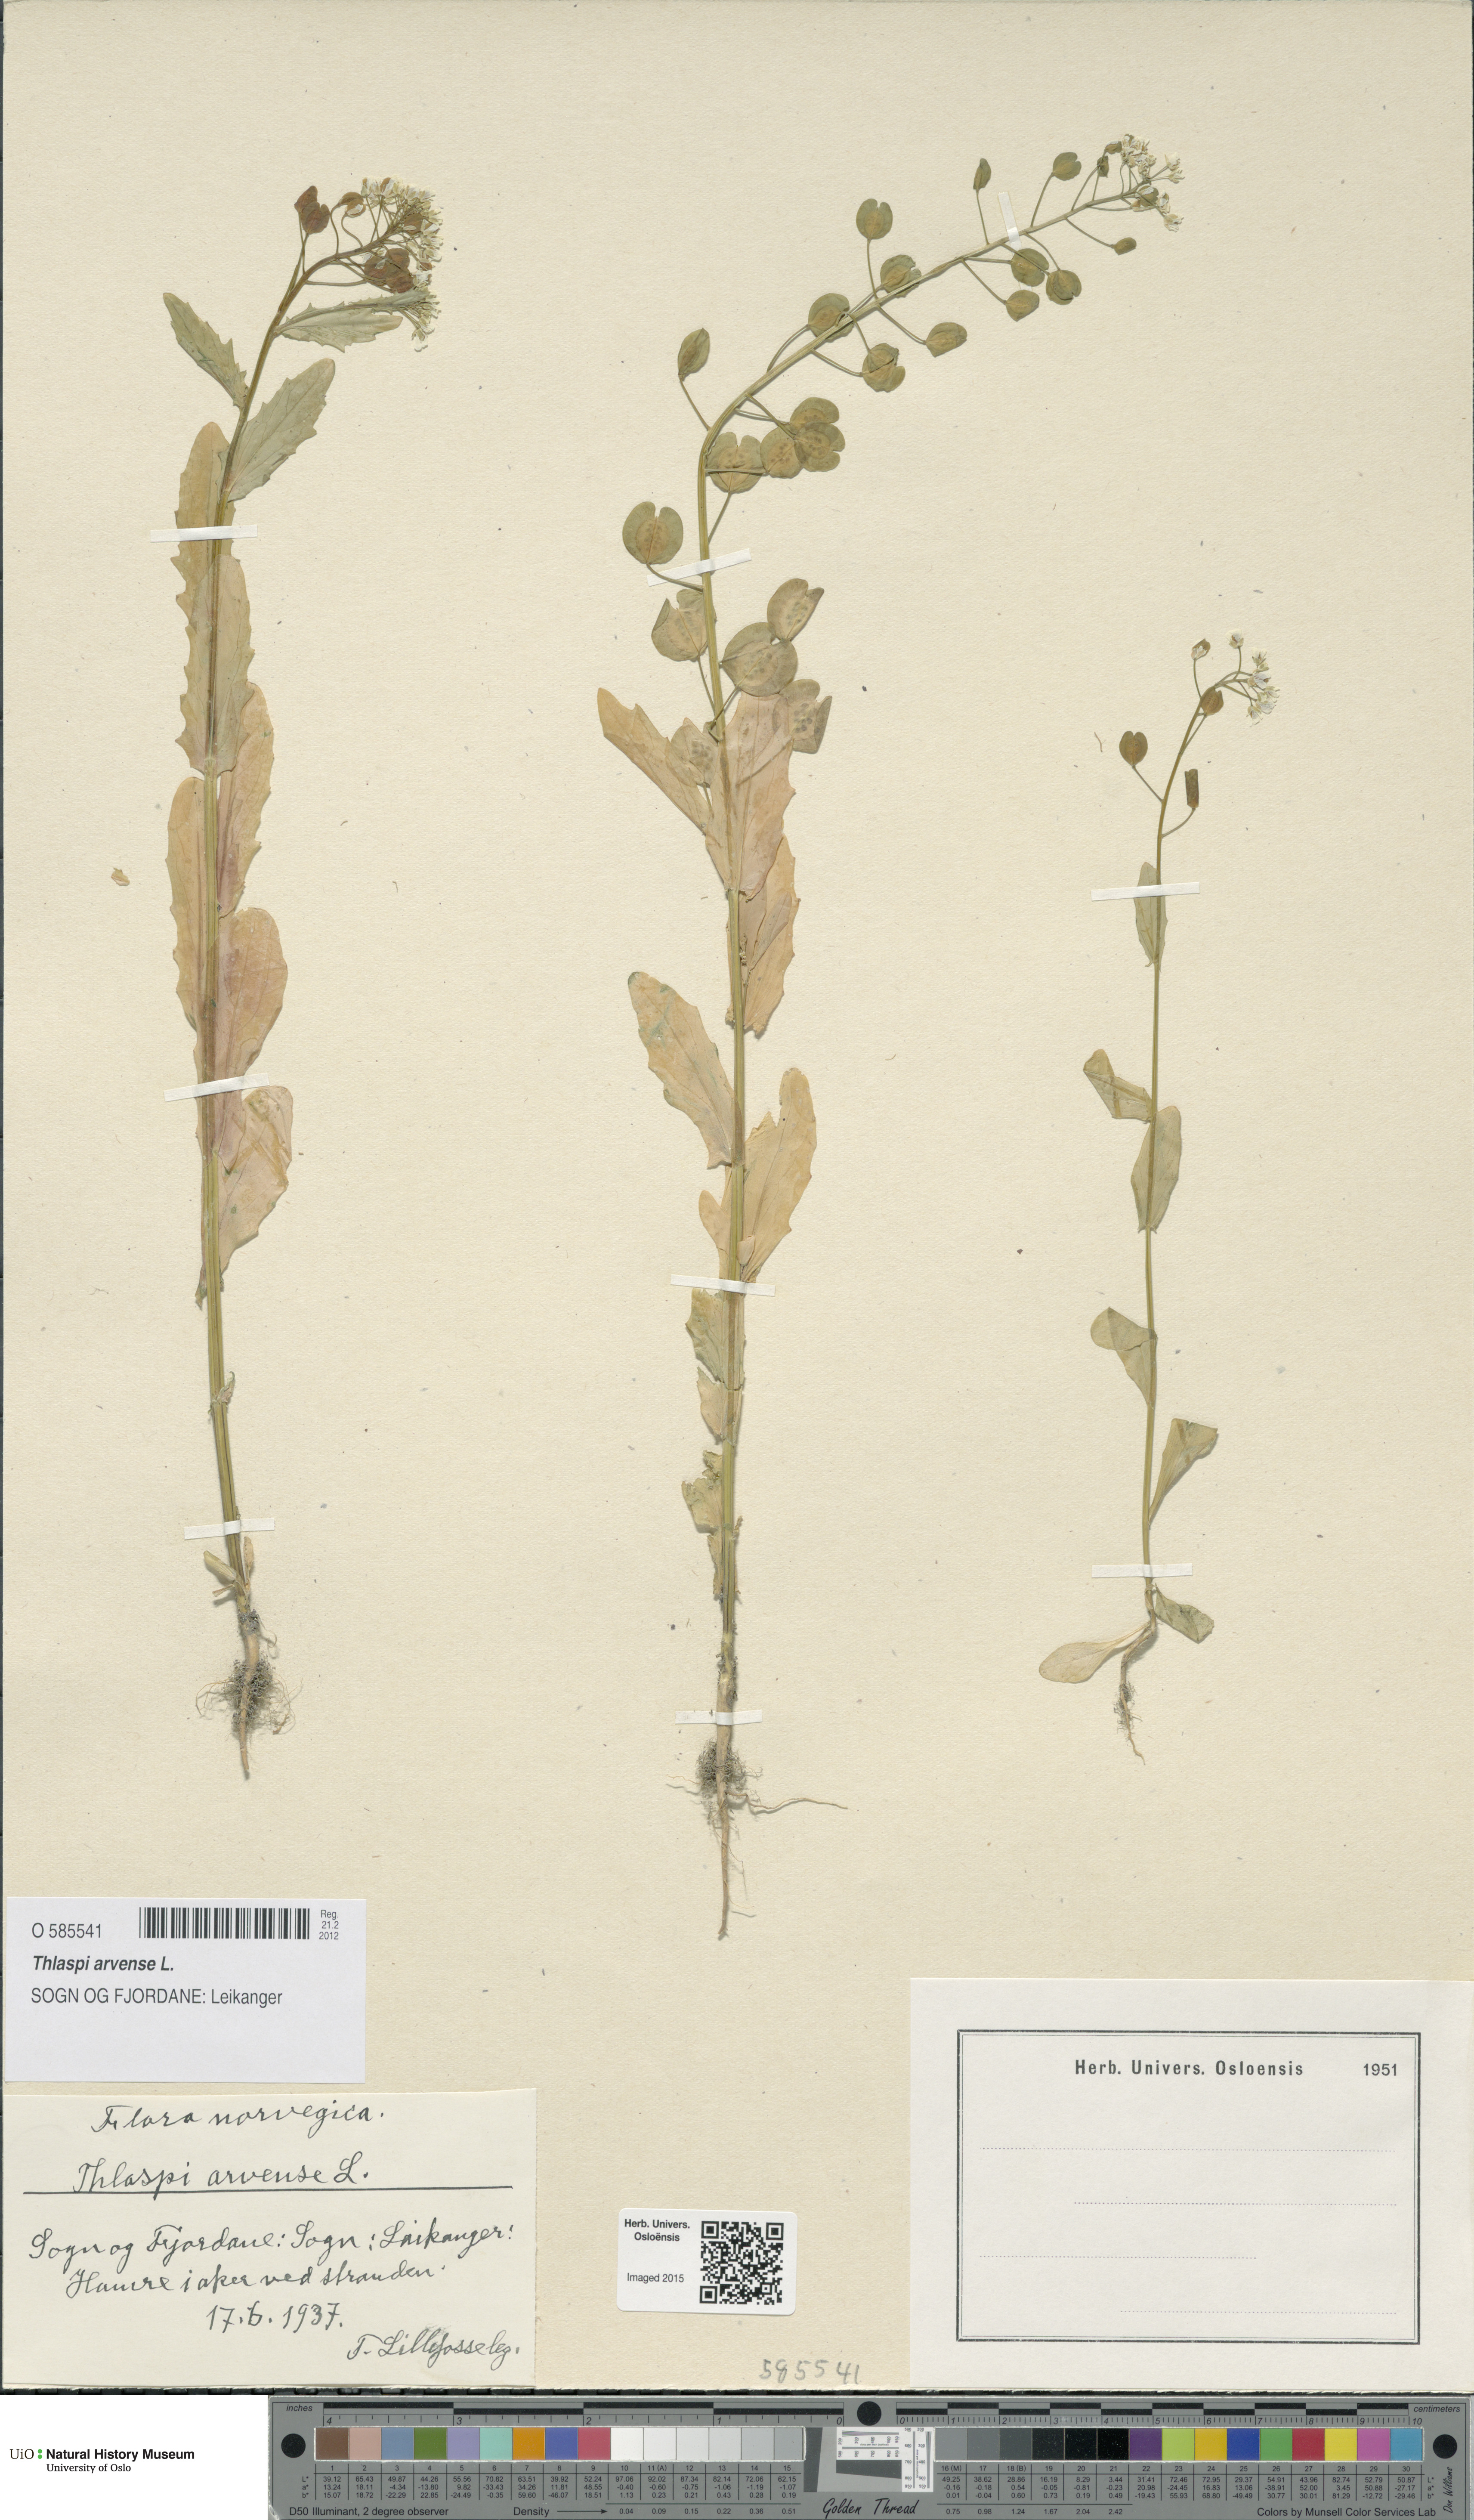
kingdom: Plantae
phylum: Tracheophyta
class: Magnoliopsida
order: Brassicales
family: Brassicaceae
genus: Thlaspi
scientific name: Thlaspi arvense
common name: Field pennycress
